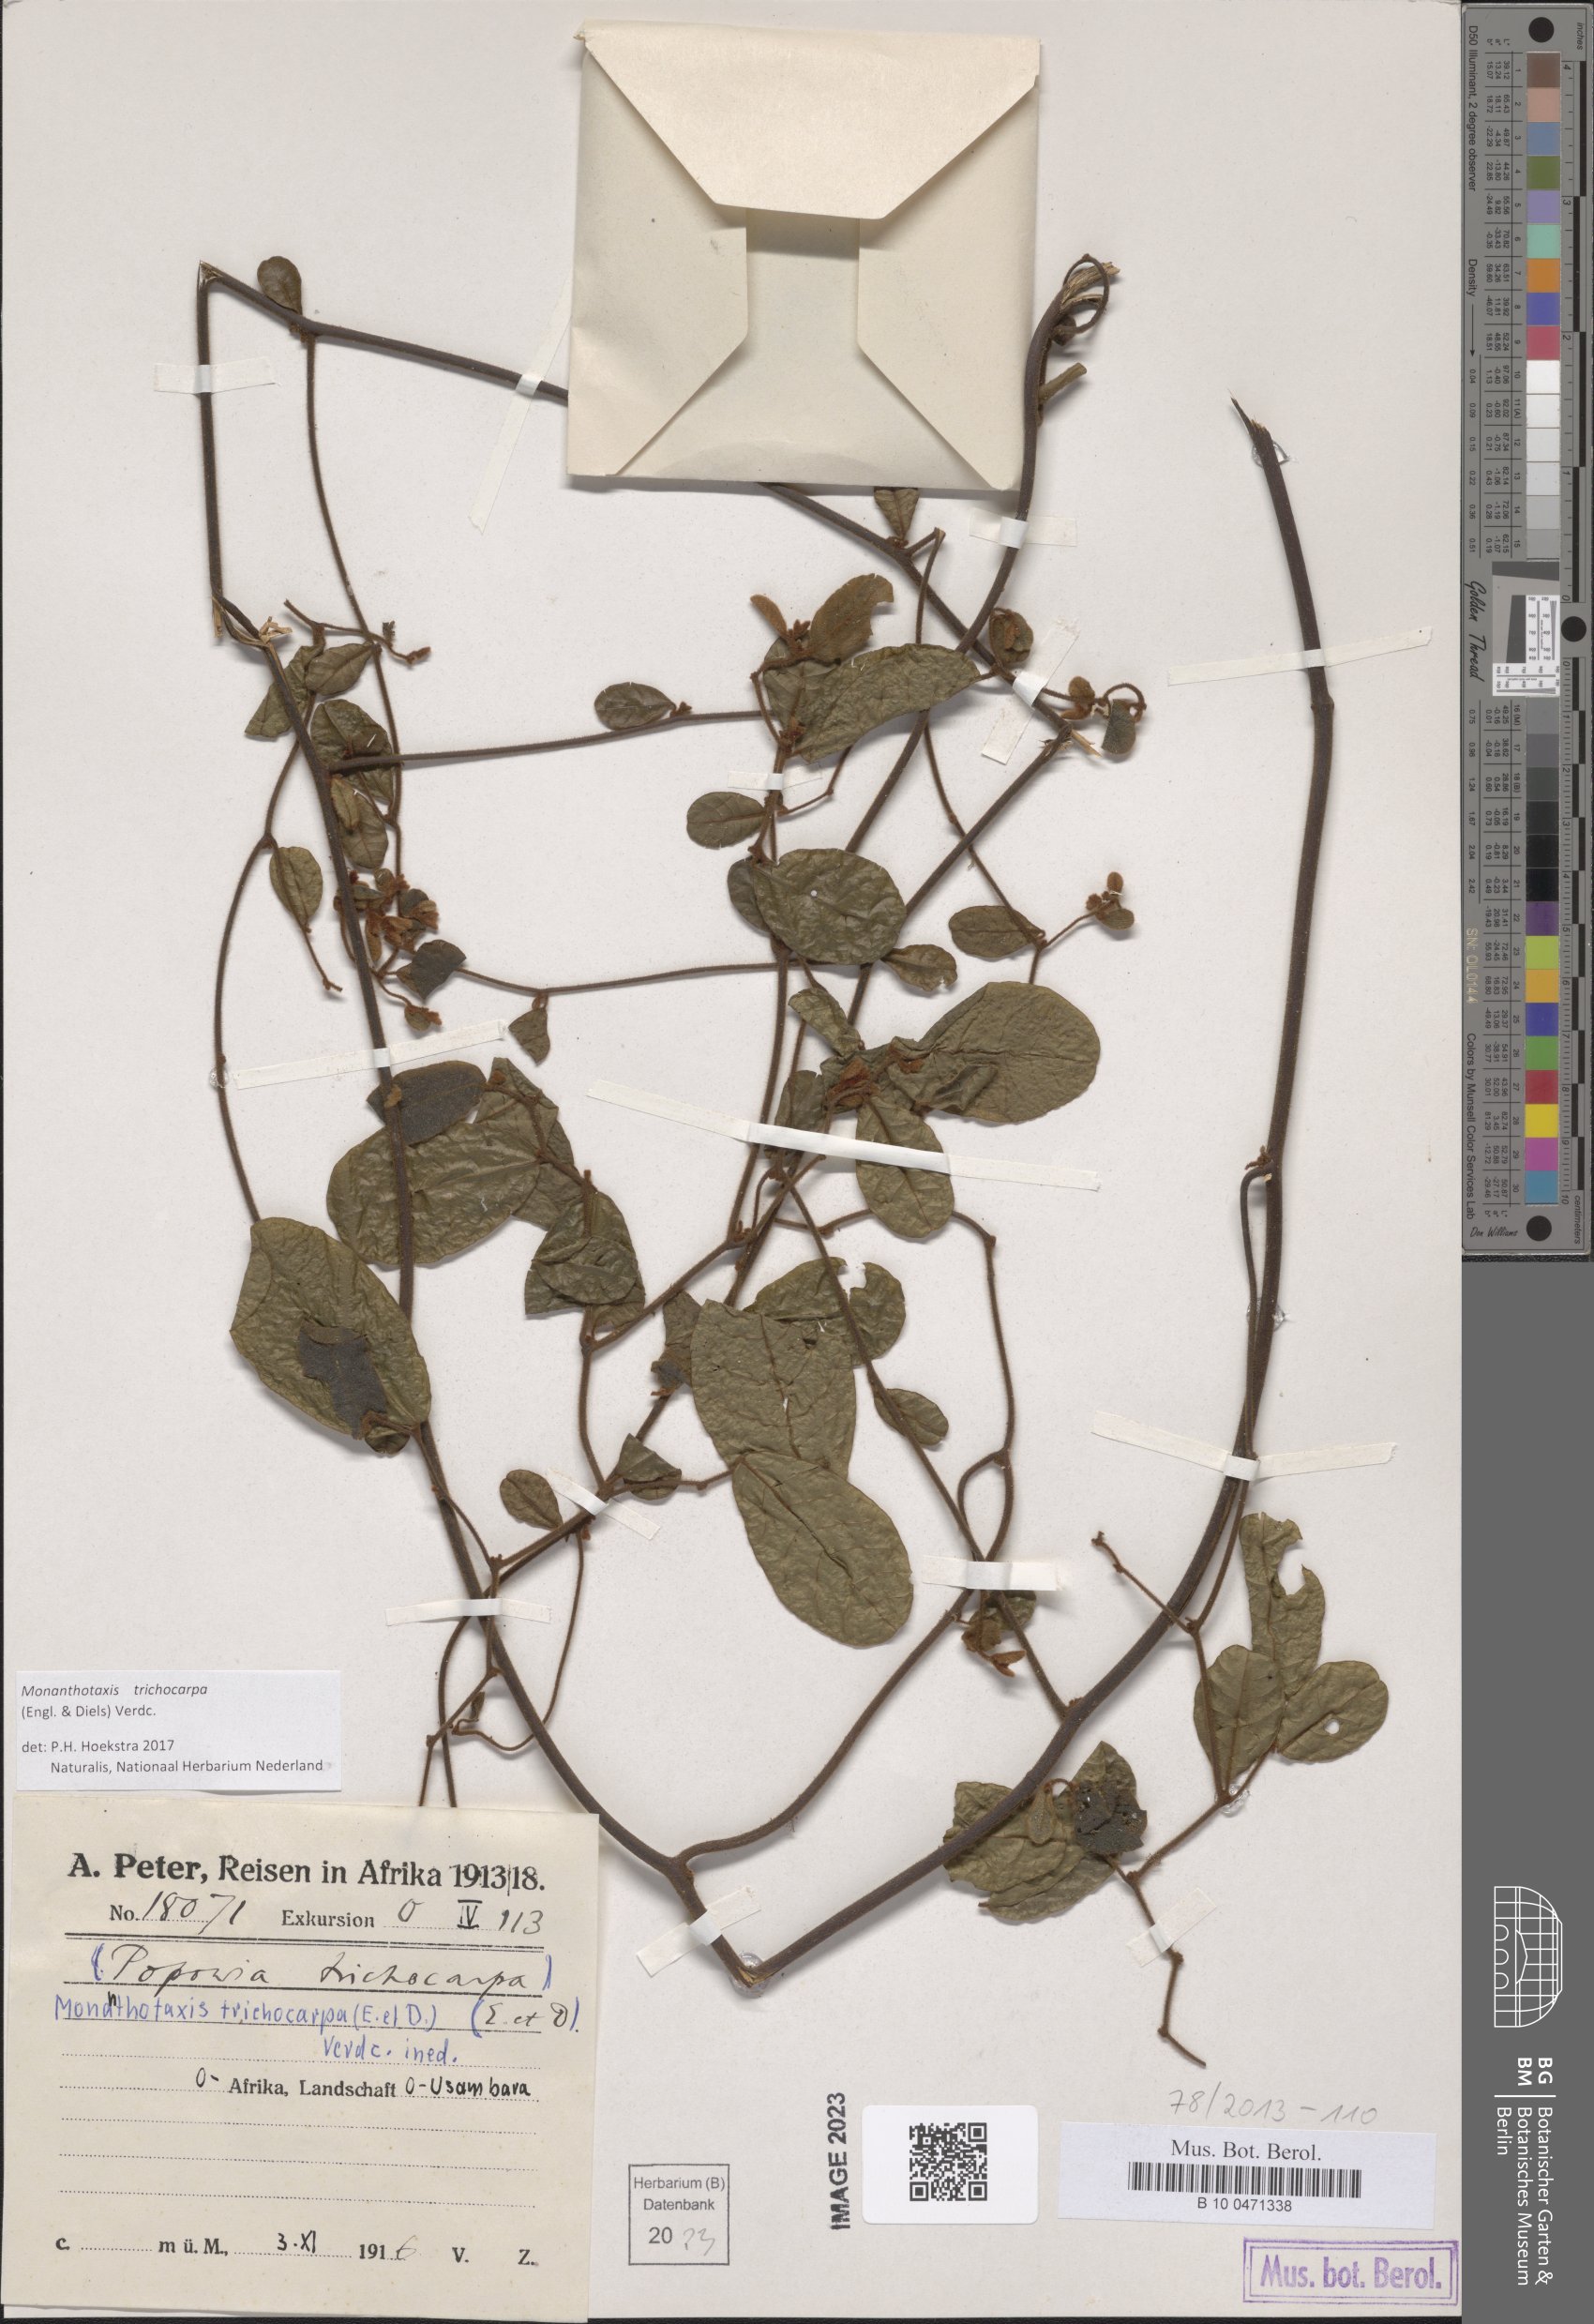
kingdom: Plantae
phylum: Tracheophyta
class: Magnoliopsida
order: Magnoliales
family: Annonaceae
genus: Monanthotaxis
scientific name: Monanthotaxis trichocarpa
